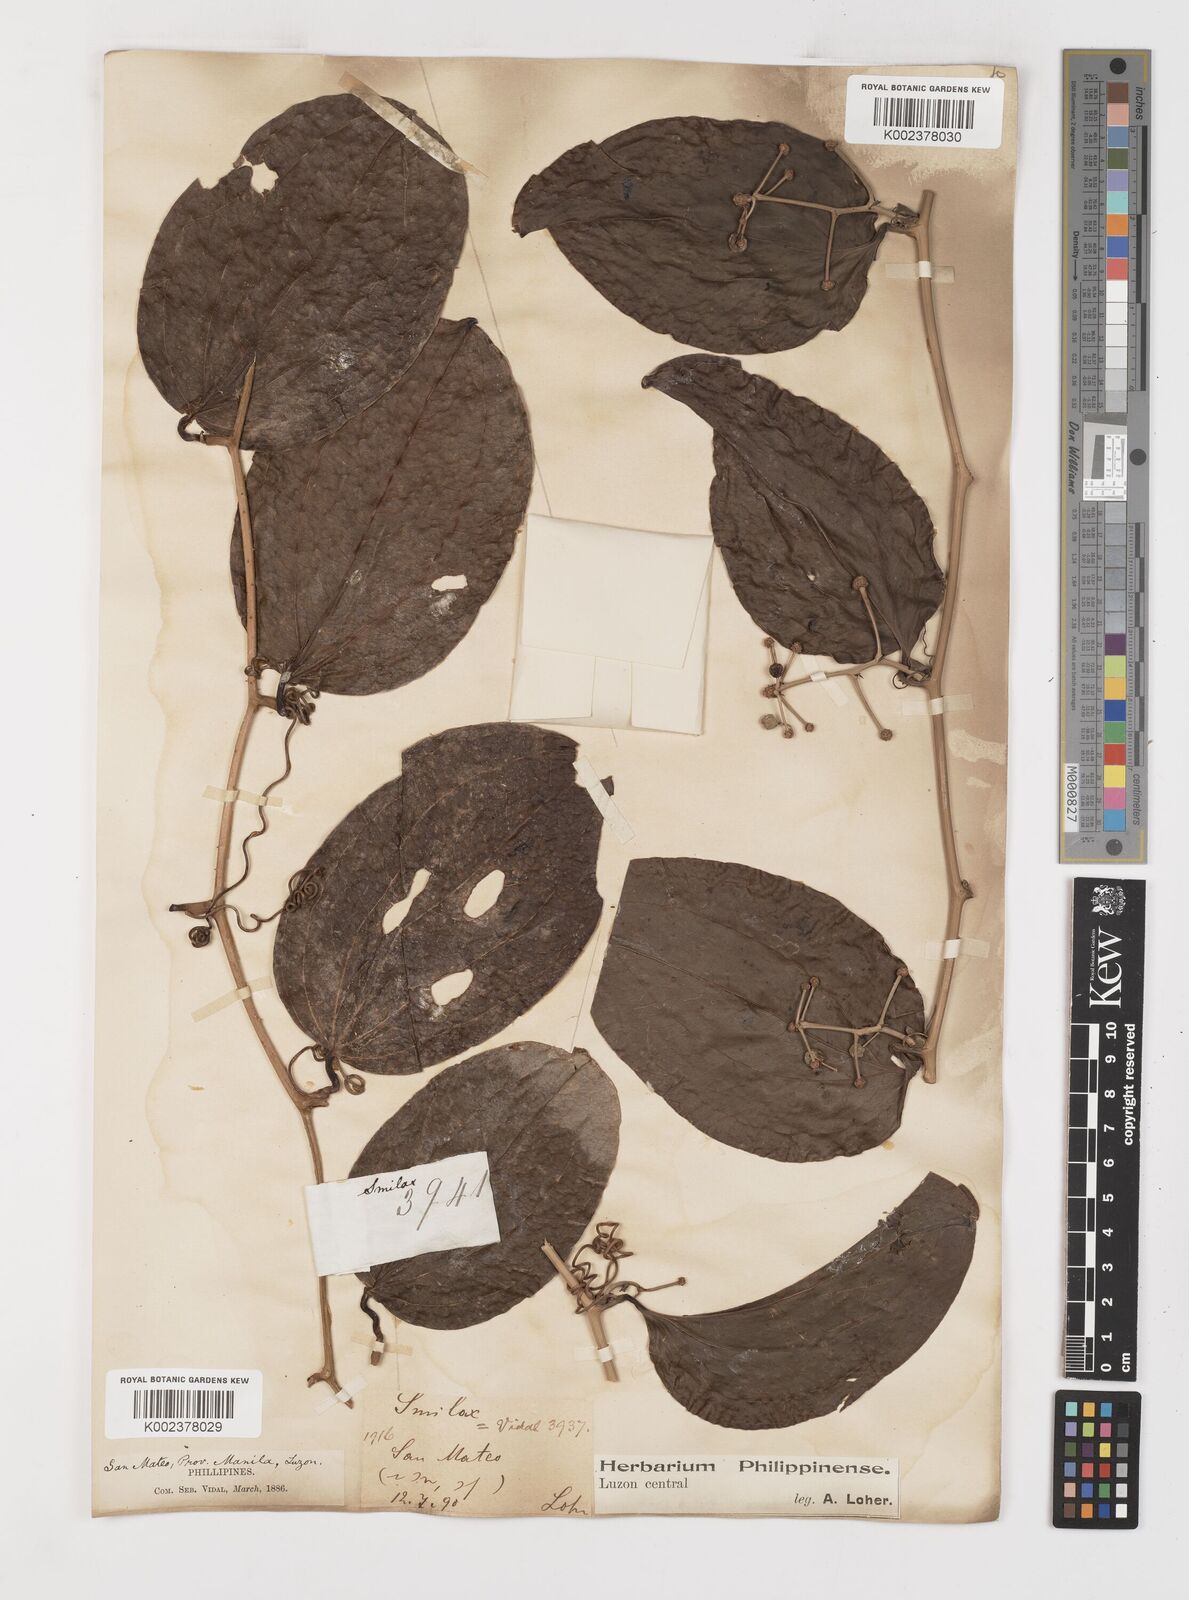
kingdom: Plantae
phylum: Tracheophyta
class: Liliopsida
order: Liliales
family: Smilacaceae
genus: Smilax
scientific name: Smilax bracteata
